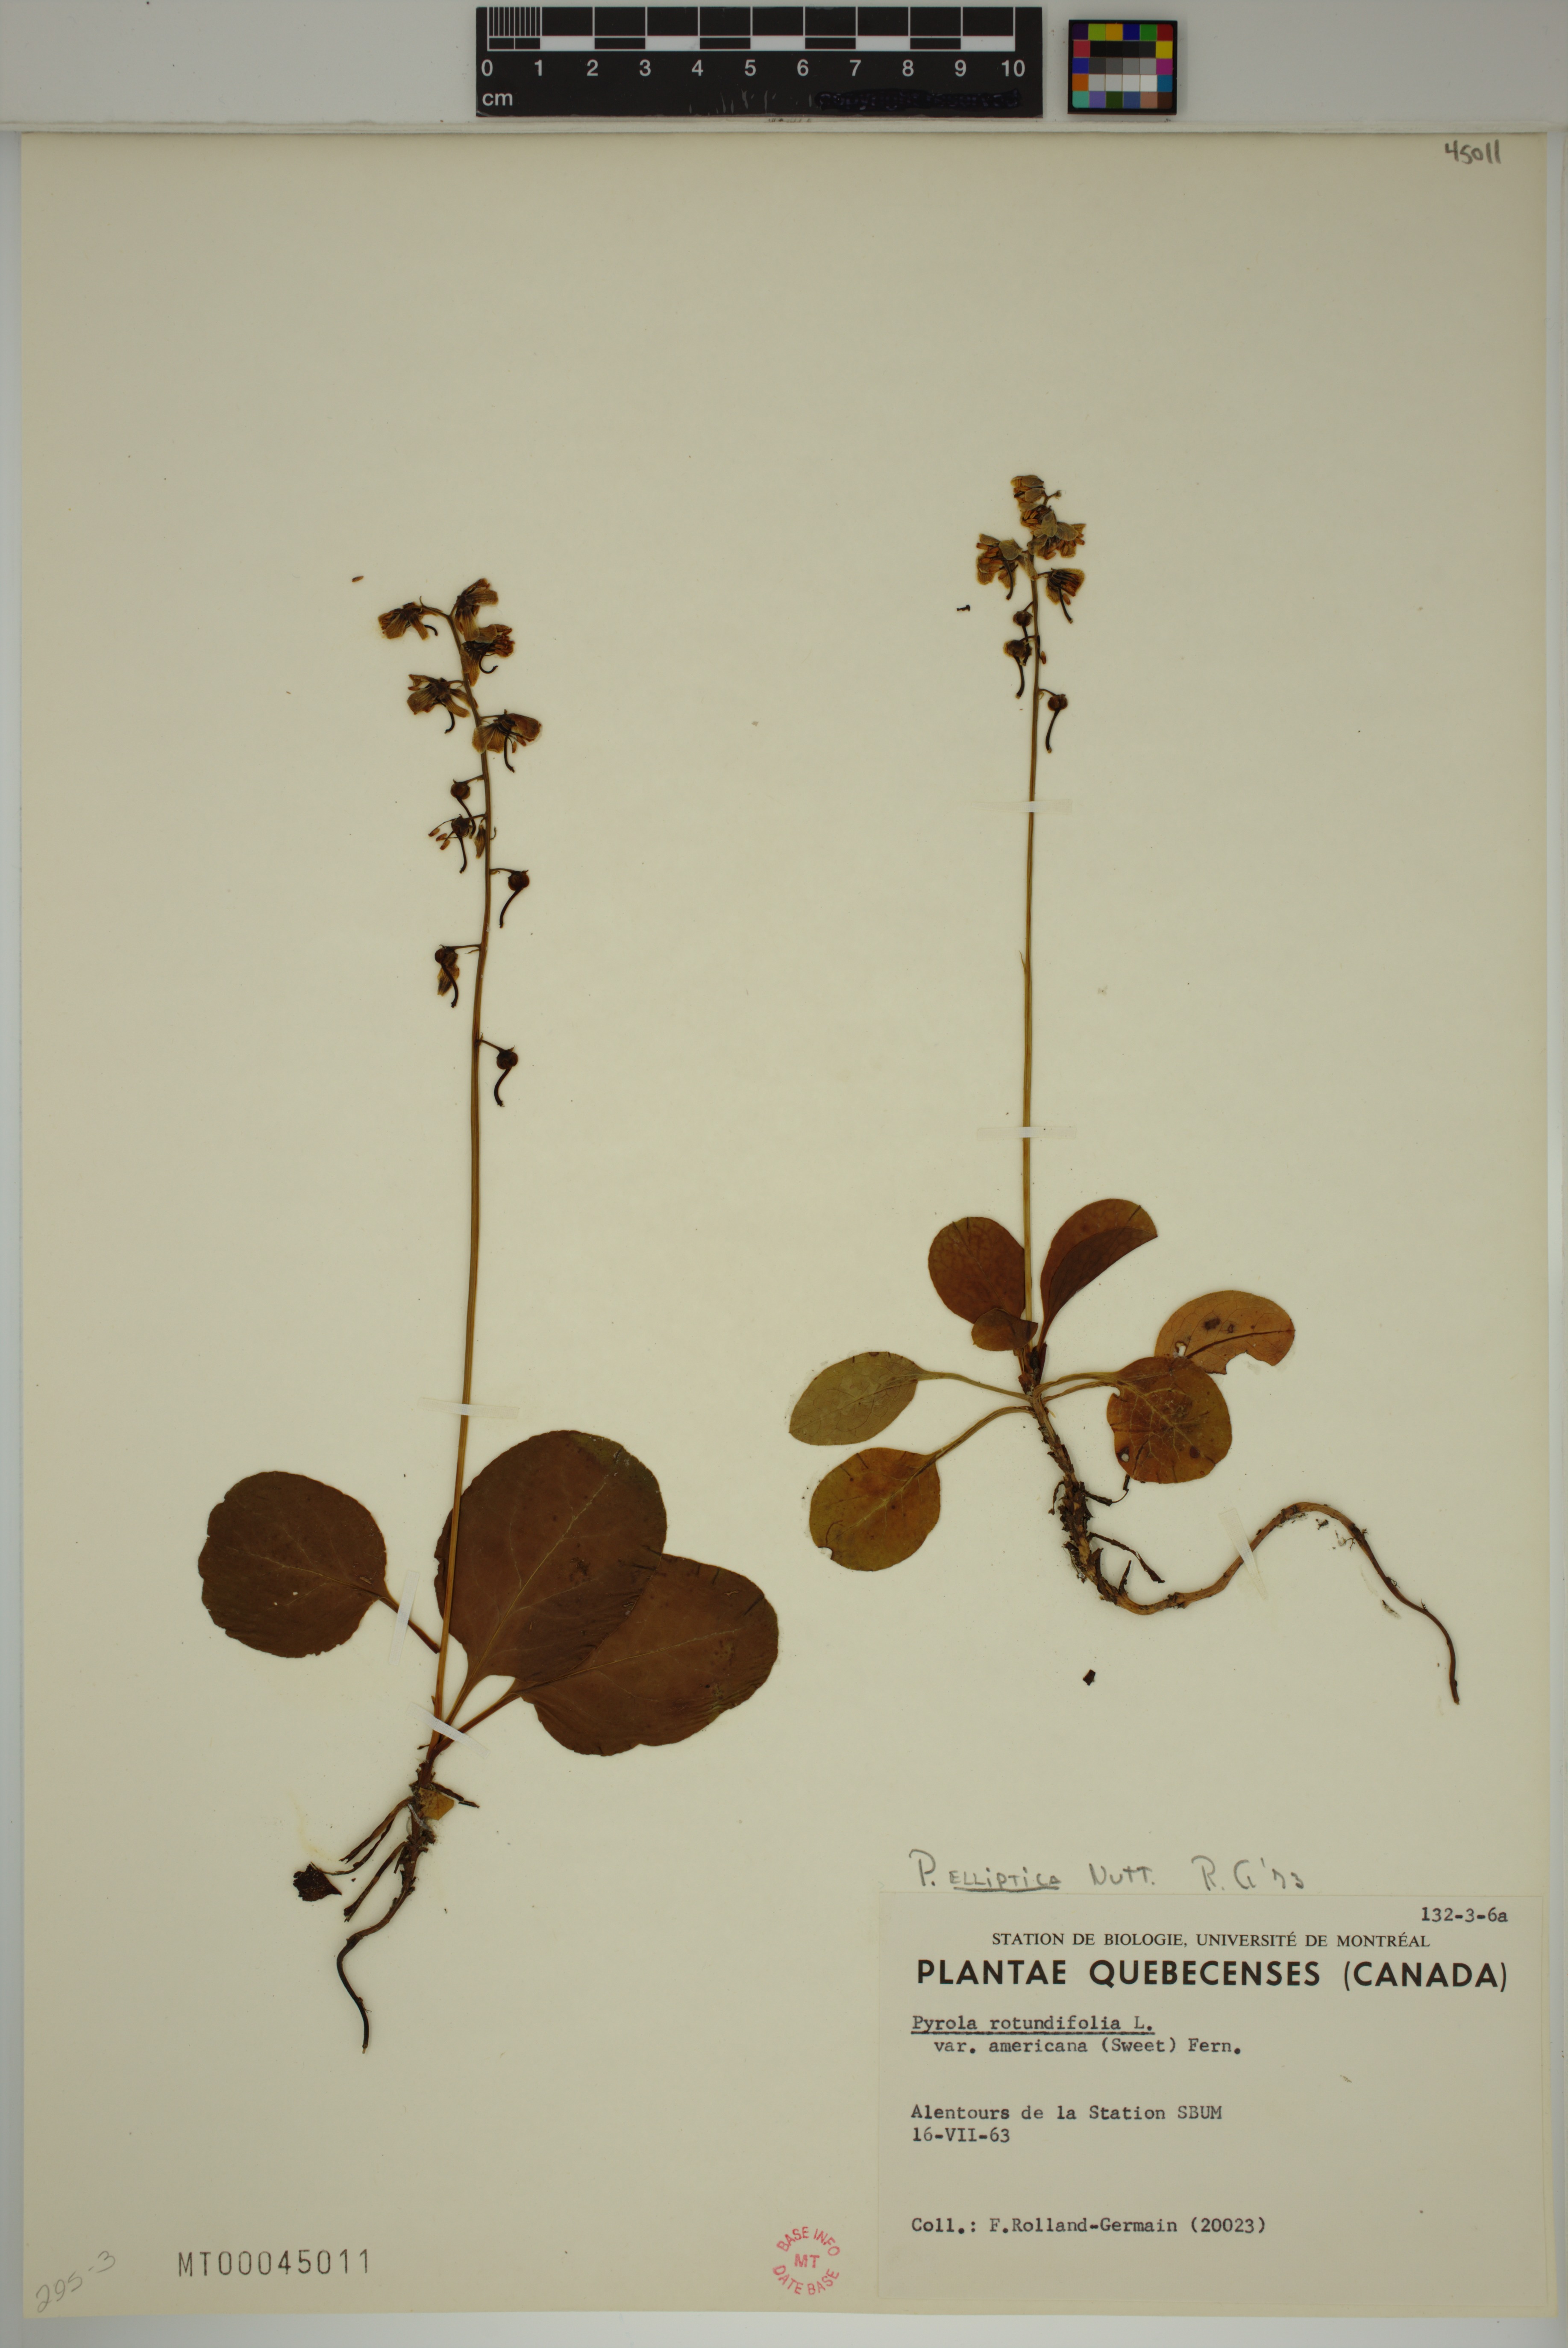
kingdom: Plantae
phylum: Tracheophyta
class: Magnoliopsida
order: Ericales
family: Ericaceae
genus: Pyrola
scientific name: Pyrola elliptica
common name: Shinleaf
